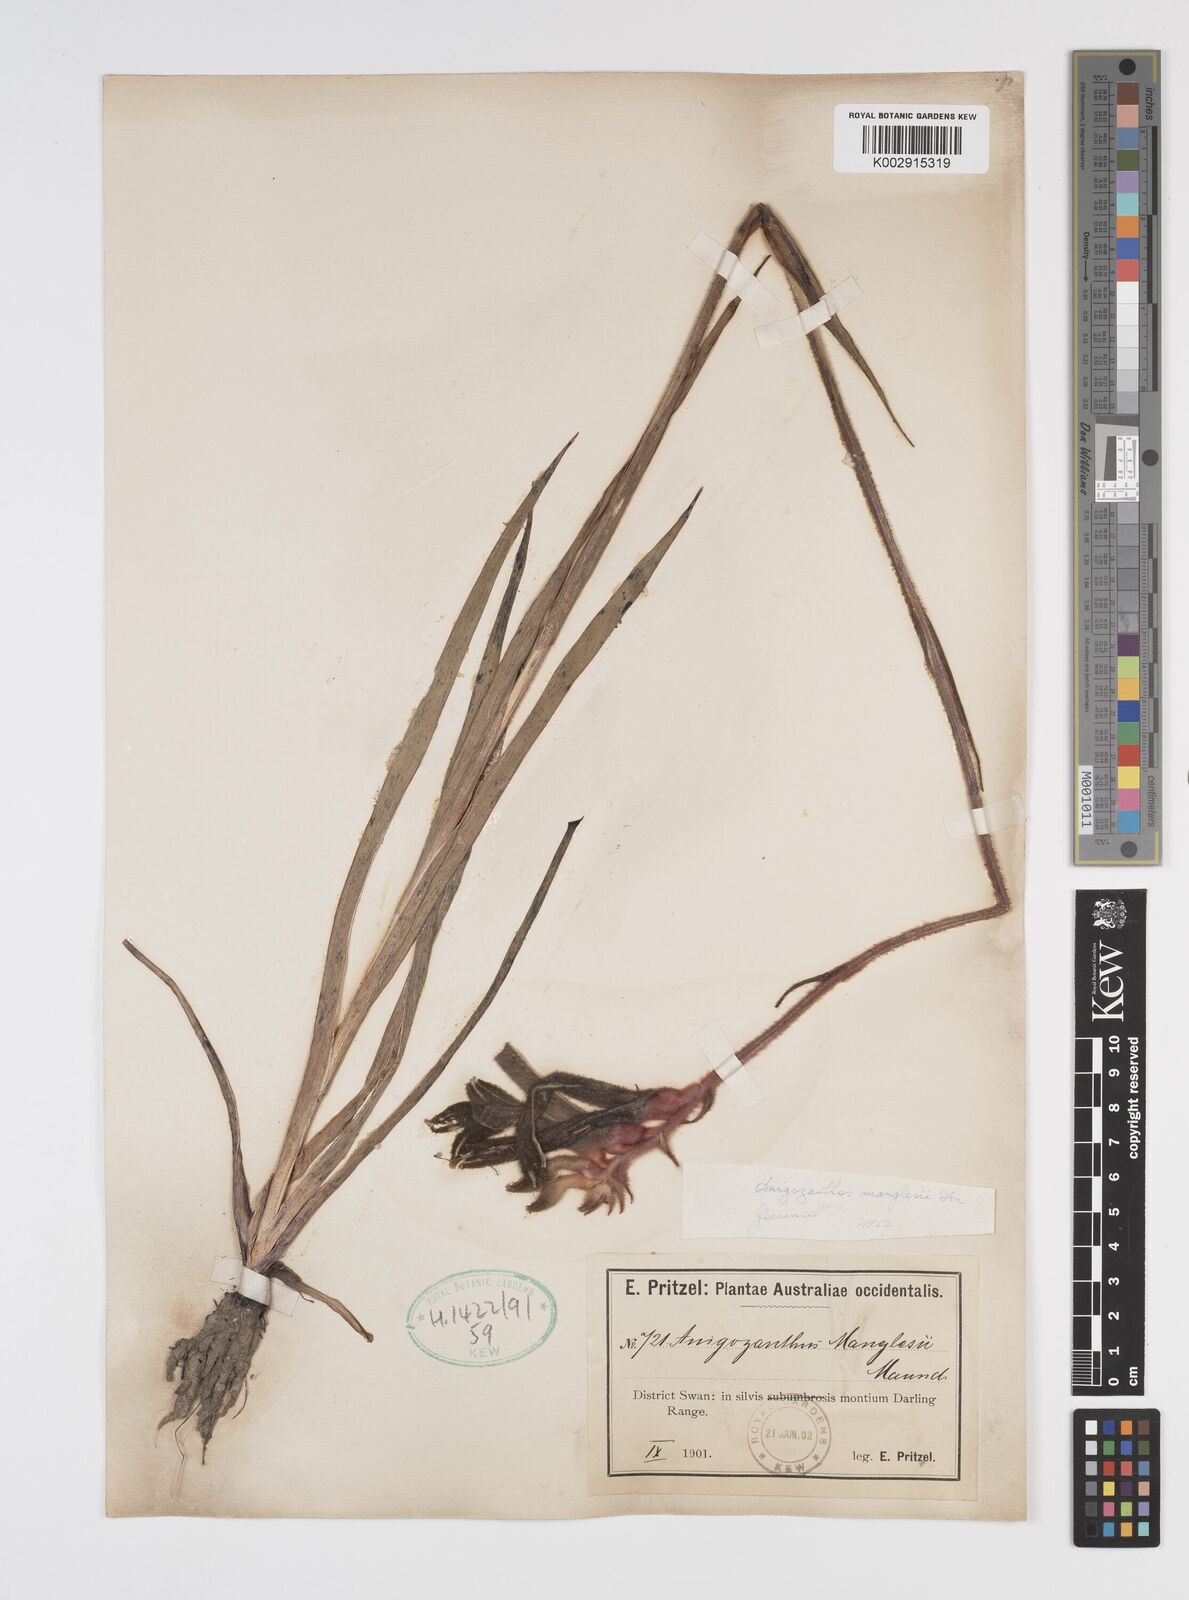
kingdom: Plantae
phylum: Tracheophyta
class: Liliopsida
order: Commelinales
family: Haemodoraceae
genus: Anigozanthos
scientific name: Anigozanthos manglesii
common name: Mangles's kangaroo-paw
